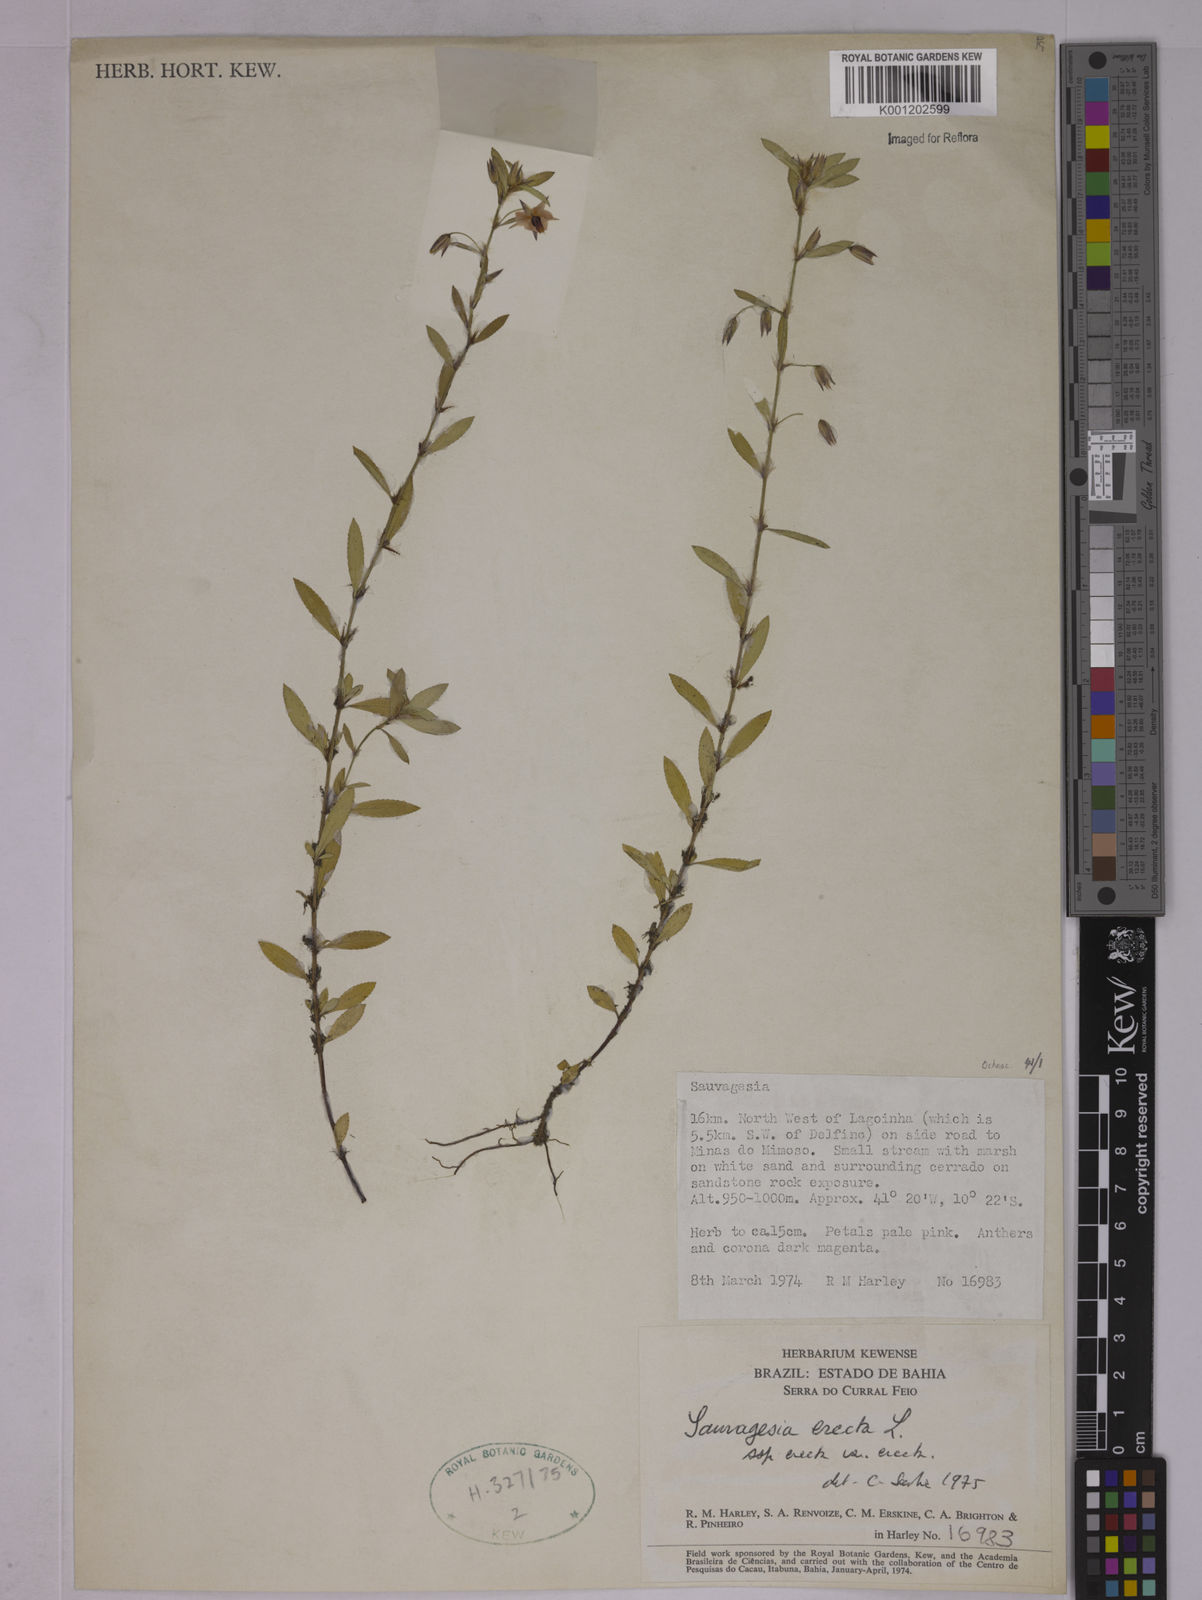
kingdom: Plantae
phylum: Tracheophyta
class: Magnoliopsida
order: Malpighiales
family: Ochnaceae
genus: Sauvagesia
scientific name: Sauvagesia erecta
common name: Creole tea
